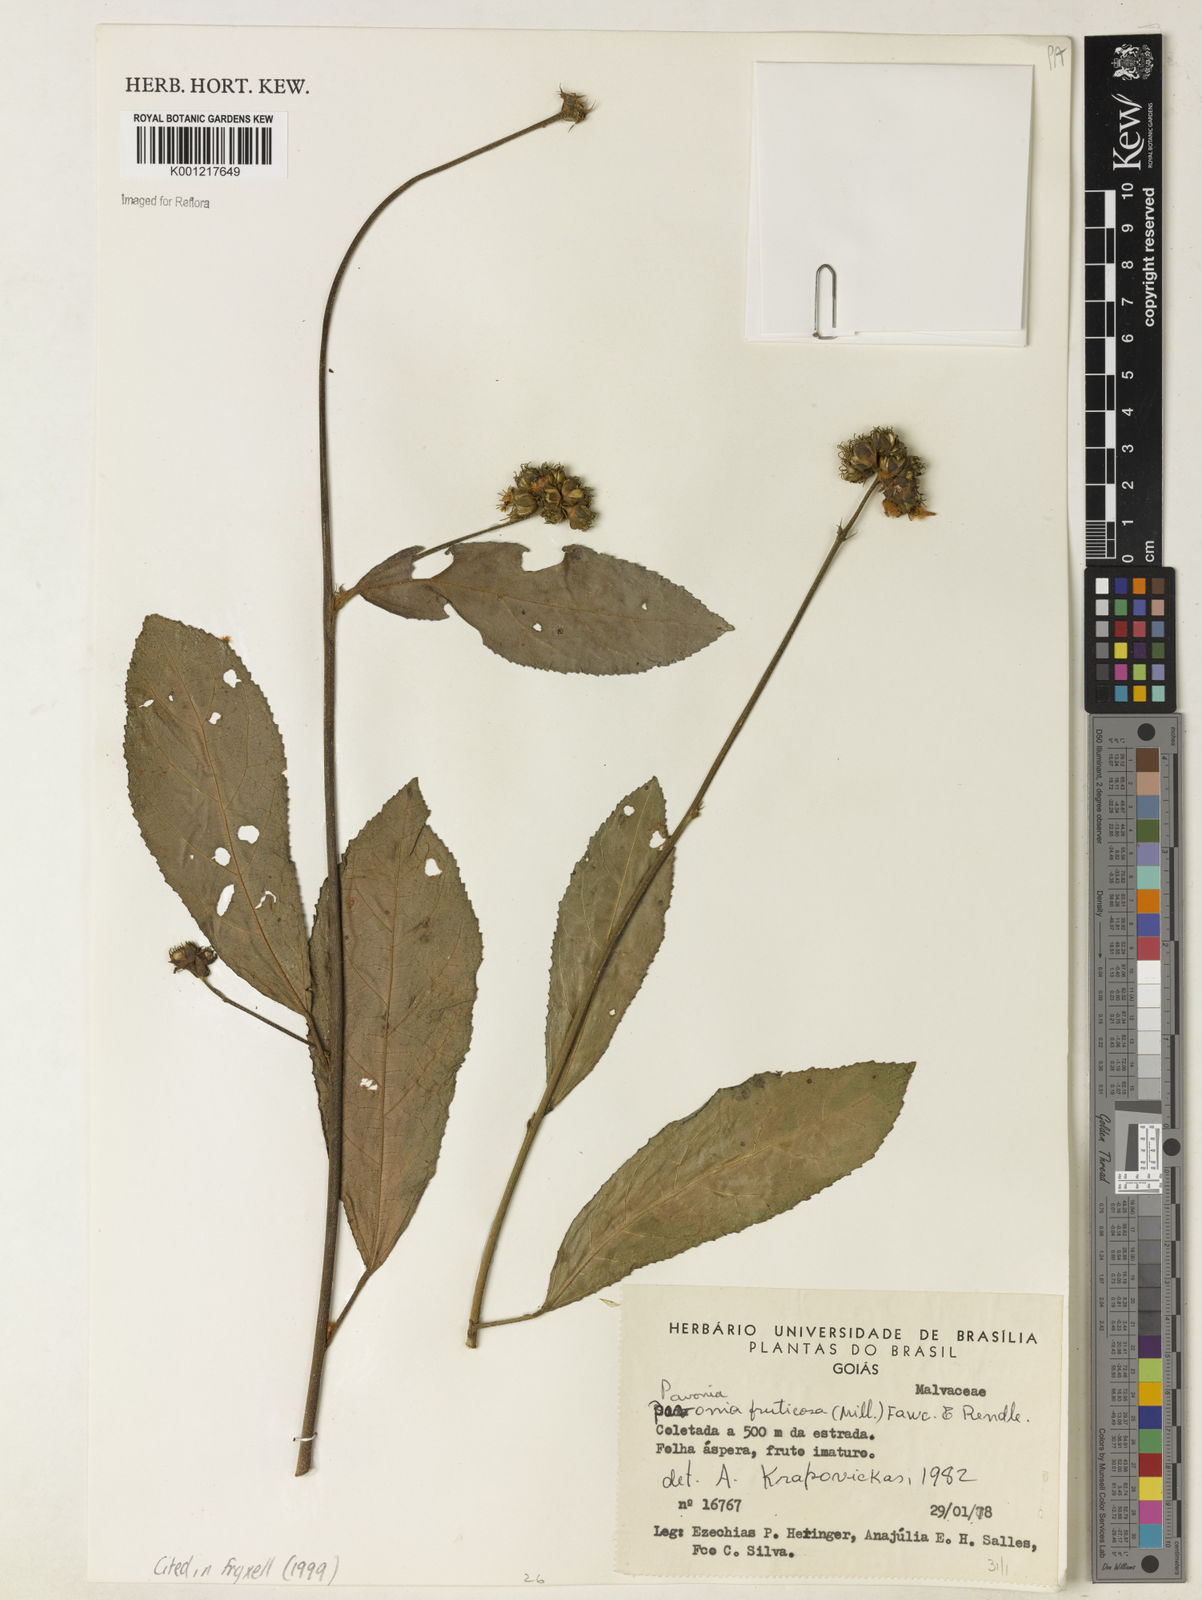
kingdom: Plantae
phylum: Tracheophyta
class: Magnoliopsida
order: Malvales
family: Malvaceae
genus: Pavonia
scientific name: Pavonia fruticosa
